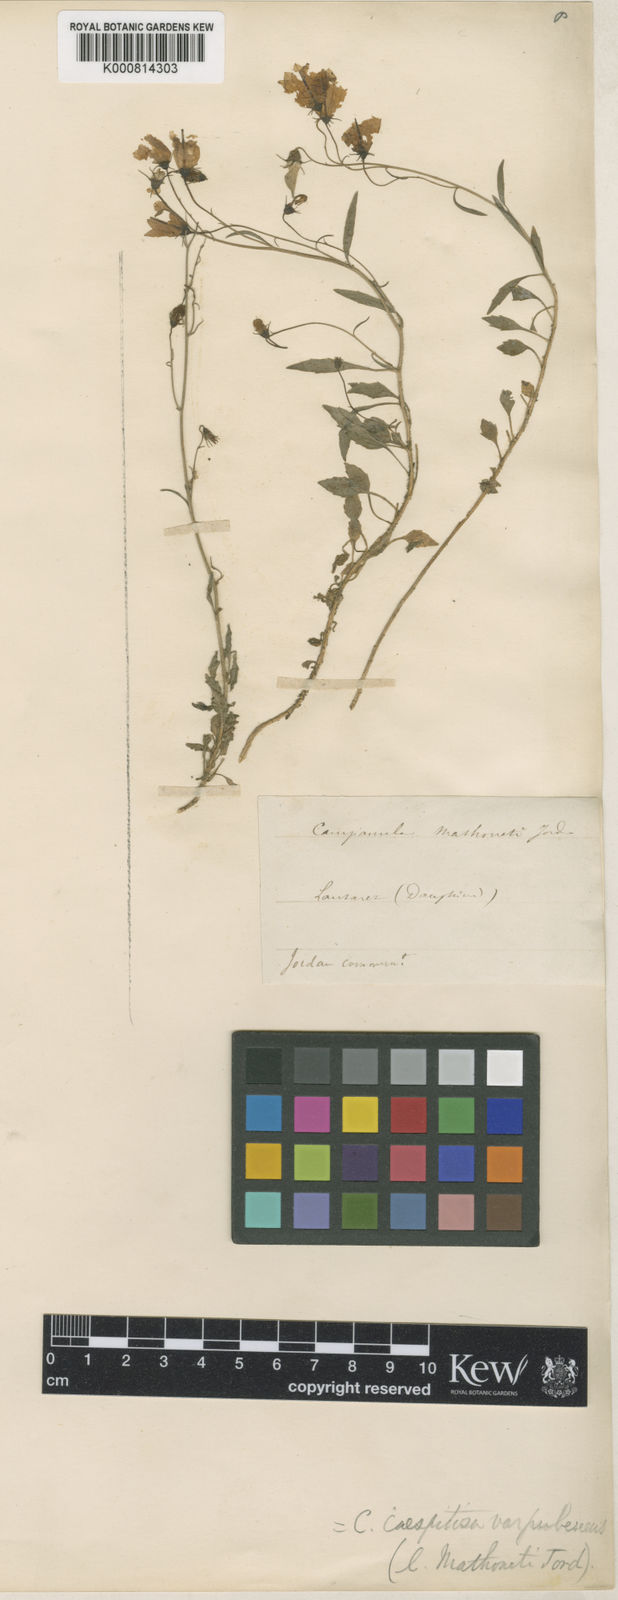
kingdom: Plantae
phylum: Tracheophyta
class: Magnoliopsida
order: Asterales
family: Campanulaceae
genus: Campanula
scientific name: Campanula cochleariifolia
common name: Fairies'-thimbles
